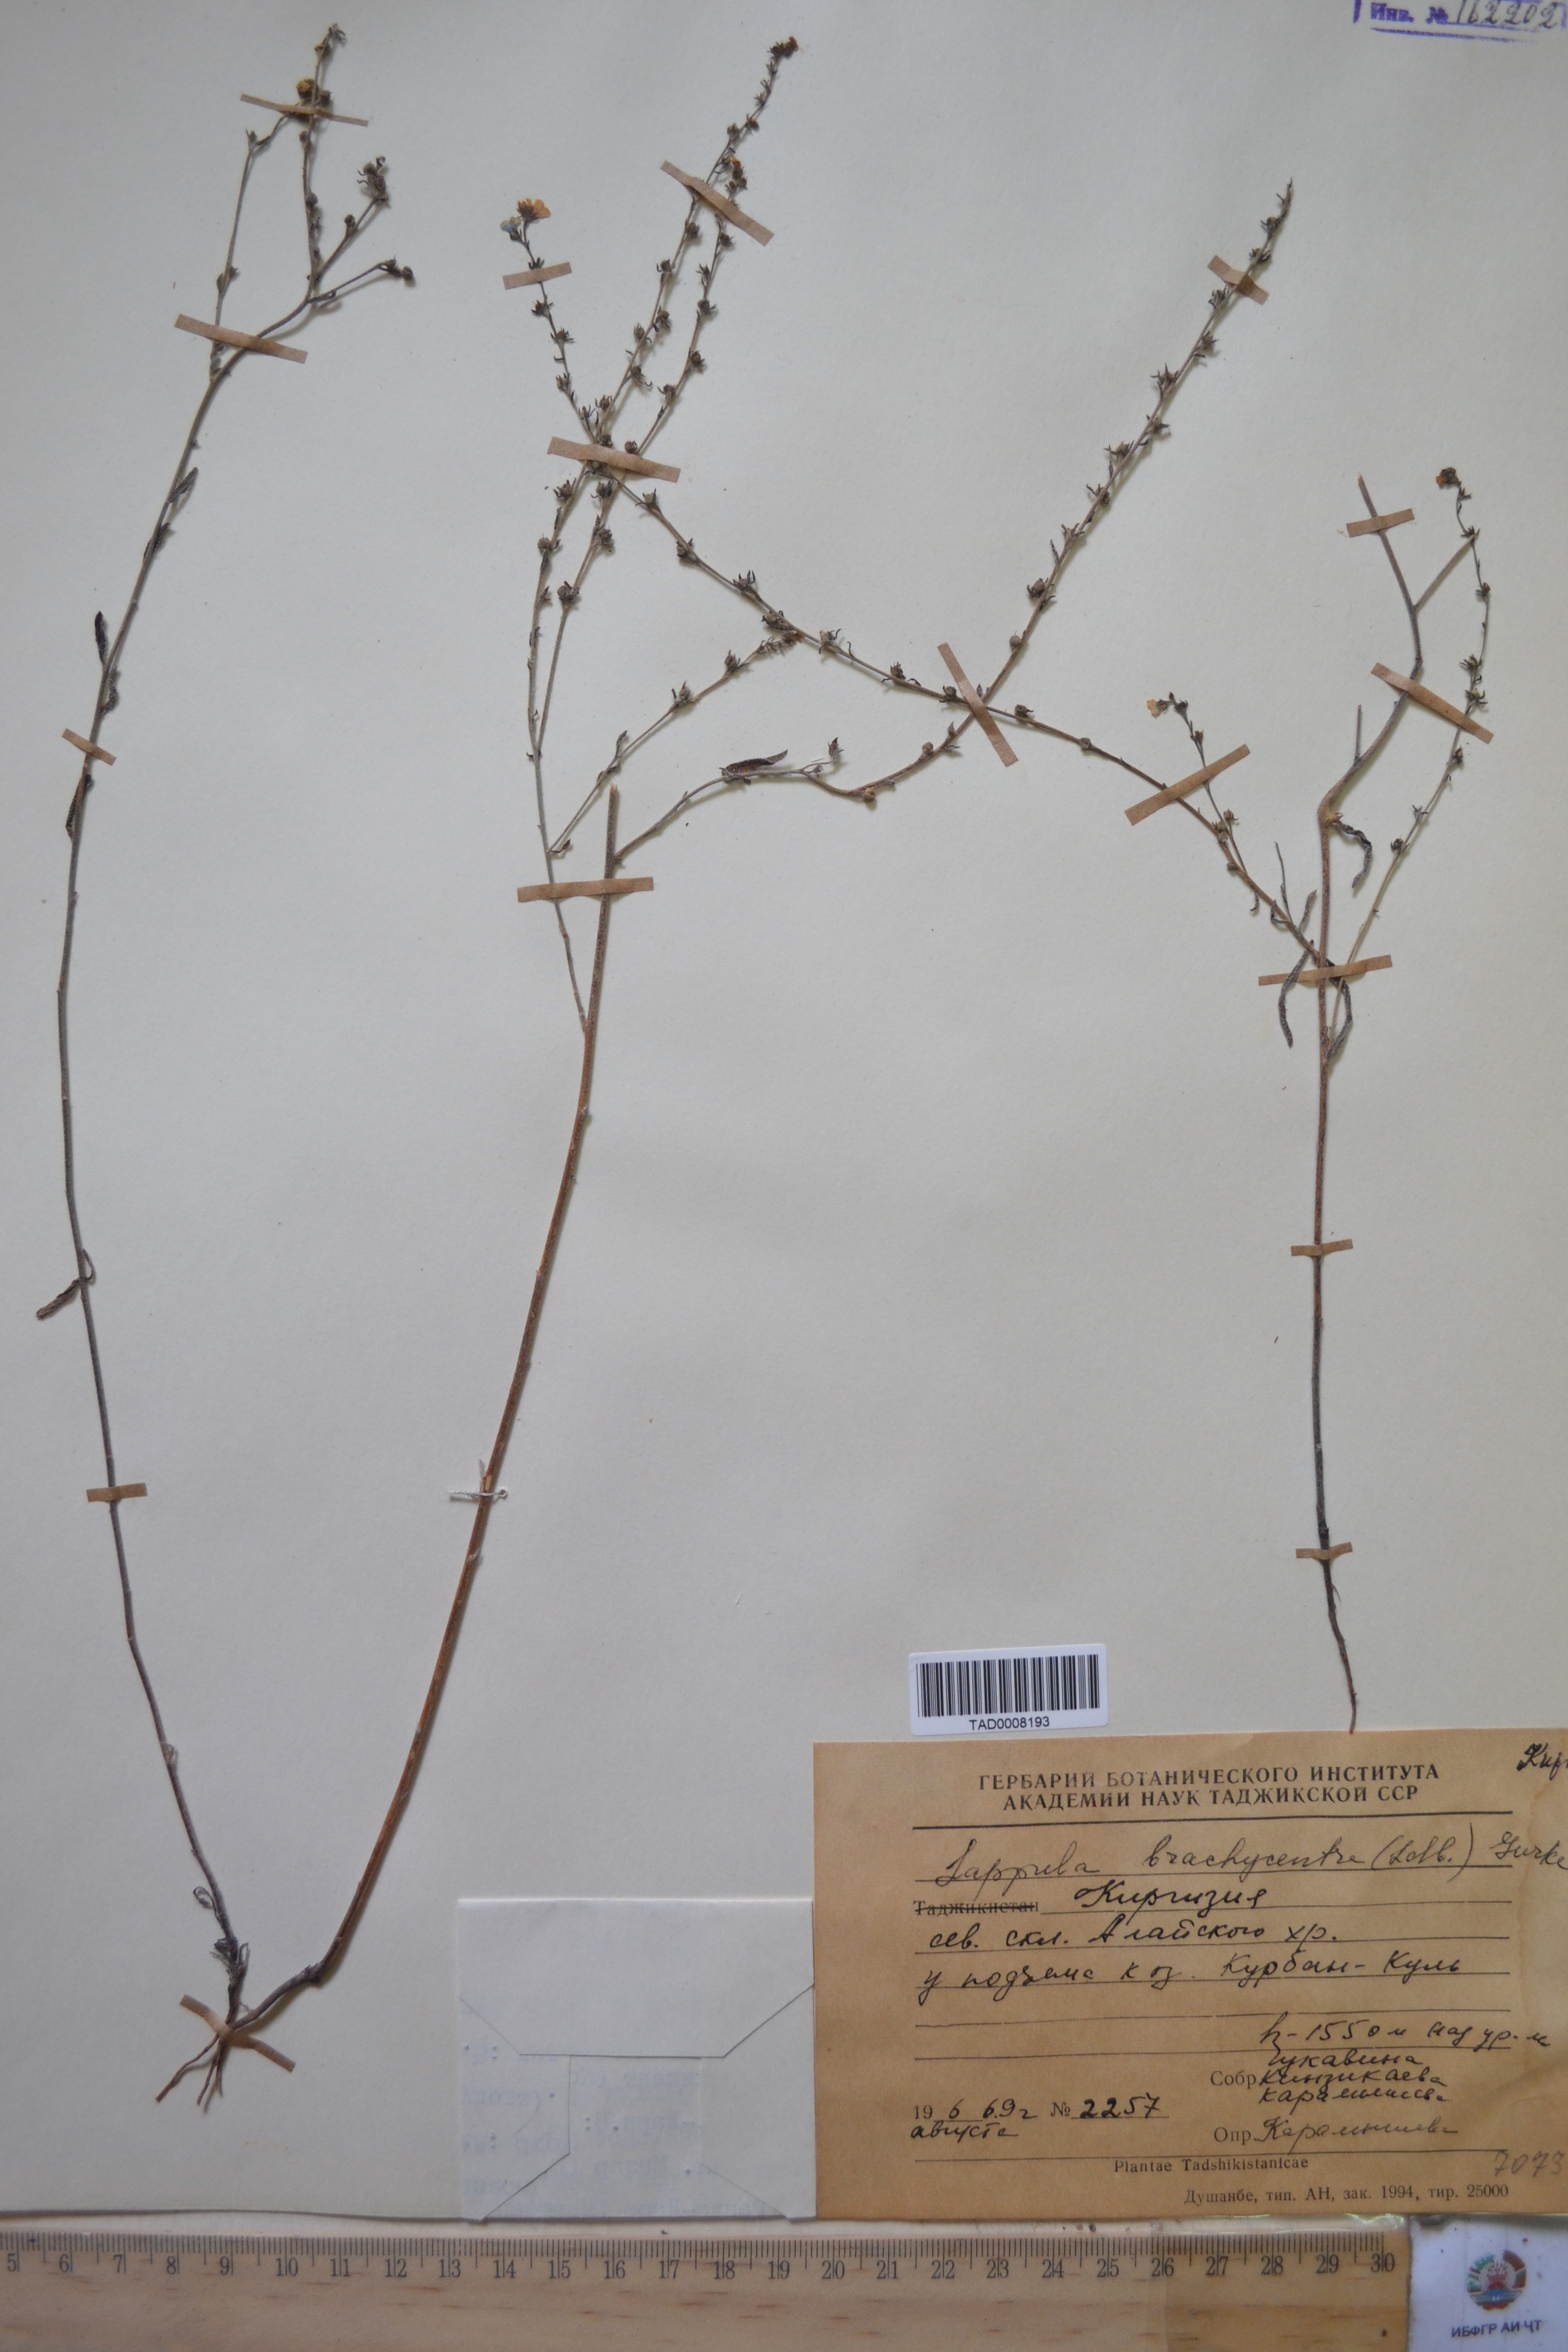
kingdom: Plantae
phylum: Tracheophyta
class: Magnoliopsida
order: Boraginales
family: Boraginaceae
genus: Lappula
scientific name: Lappula brachycentra
